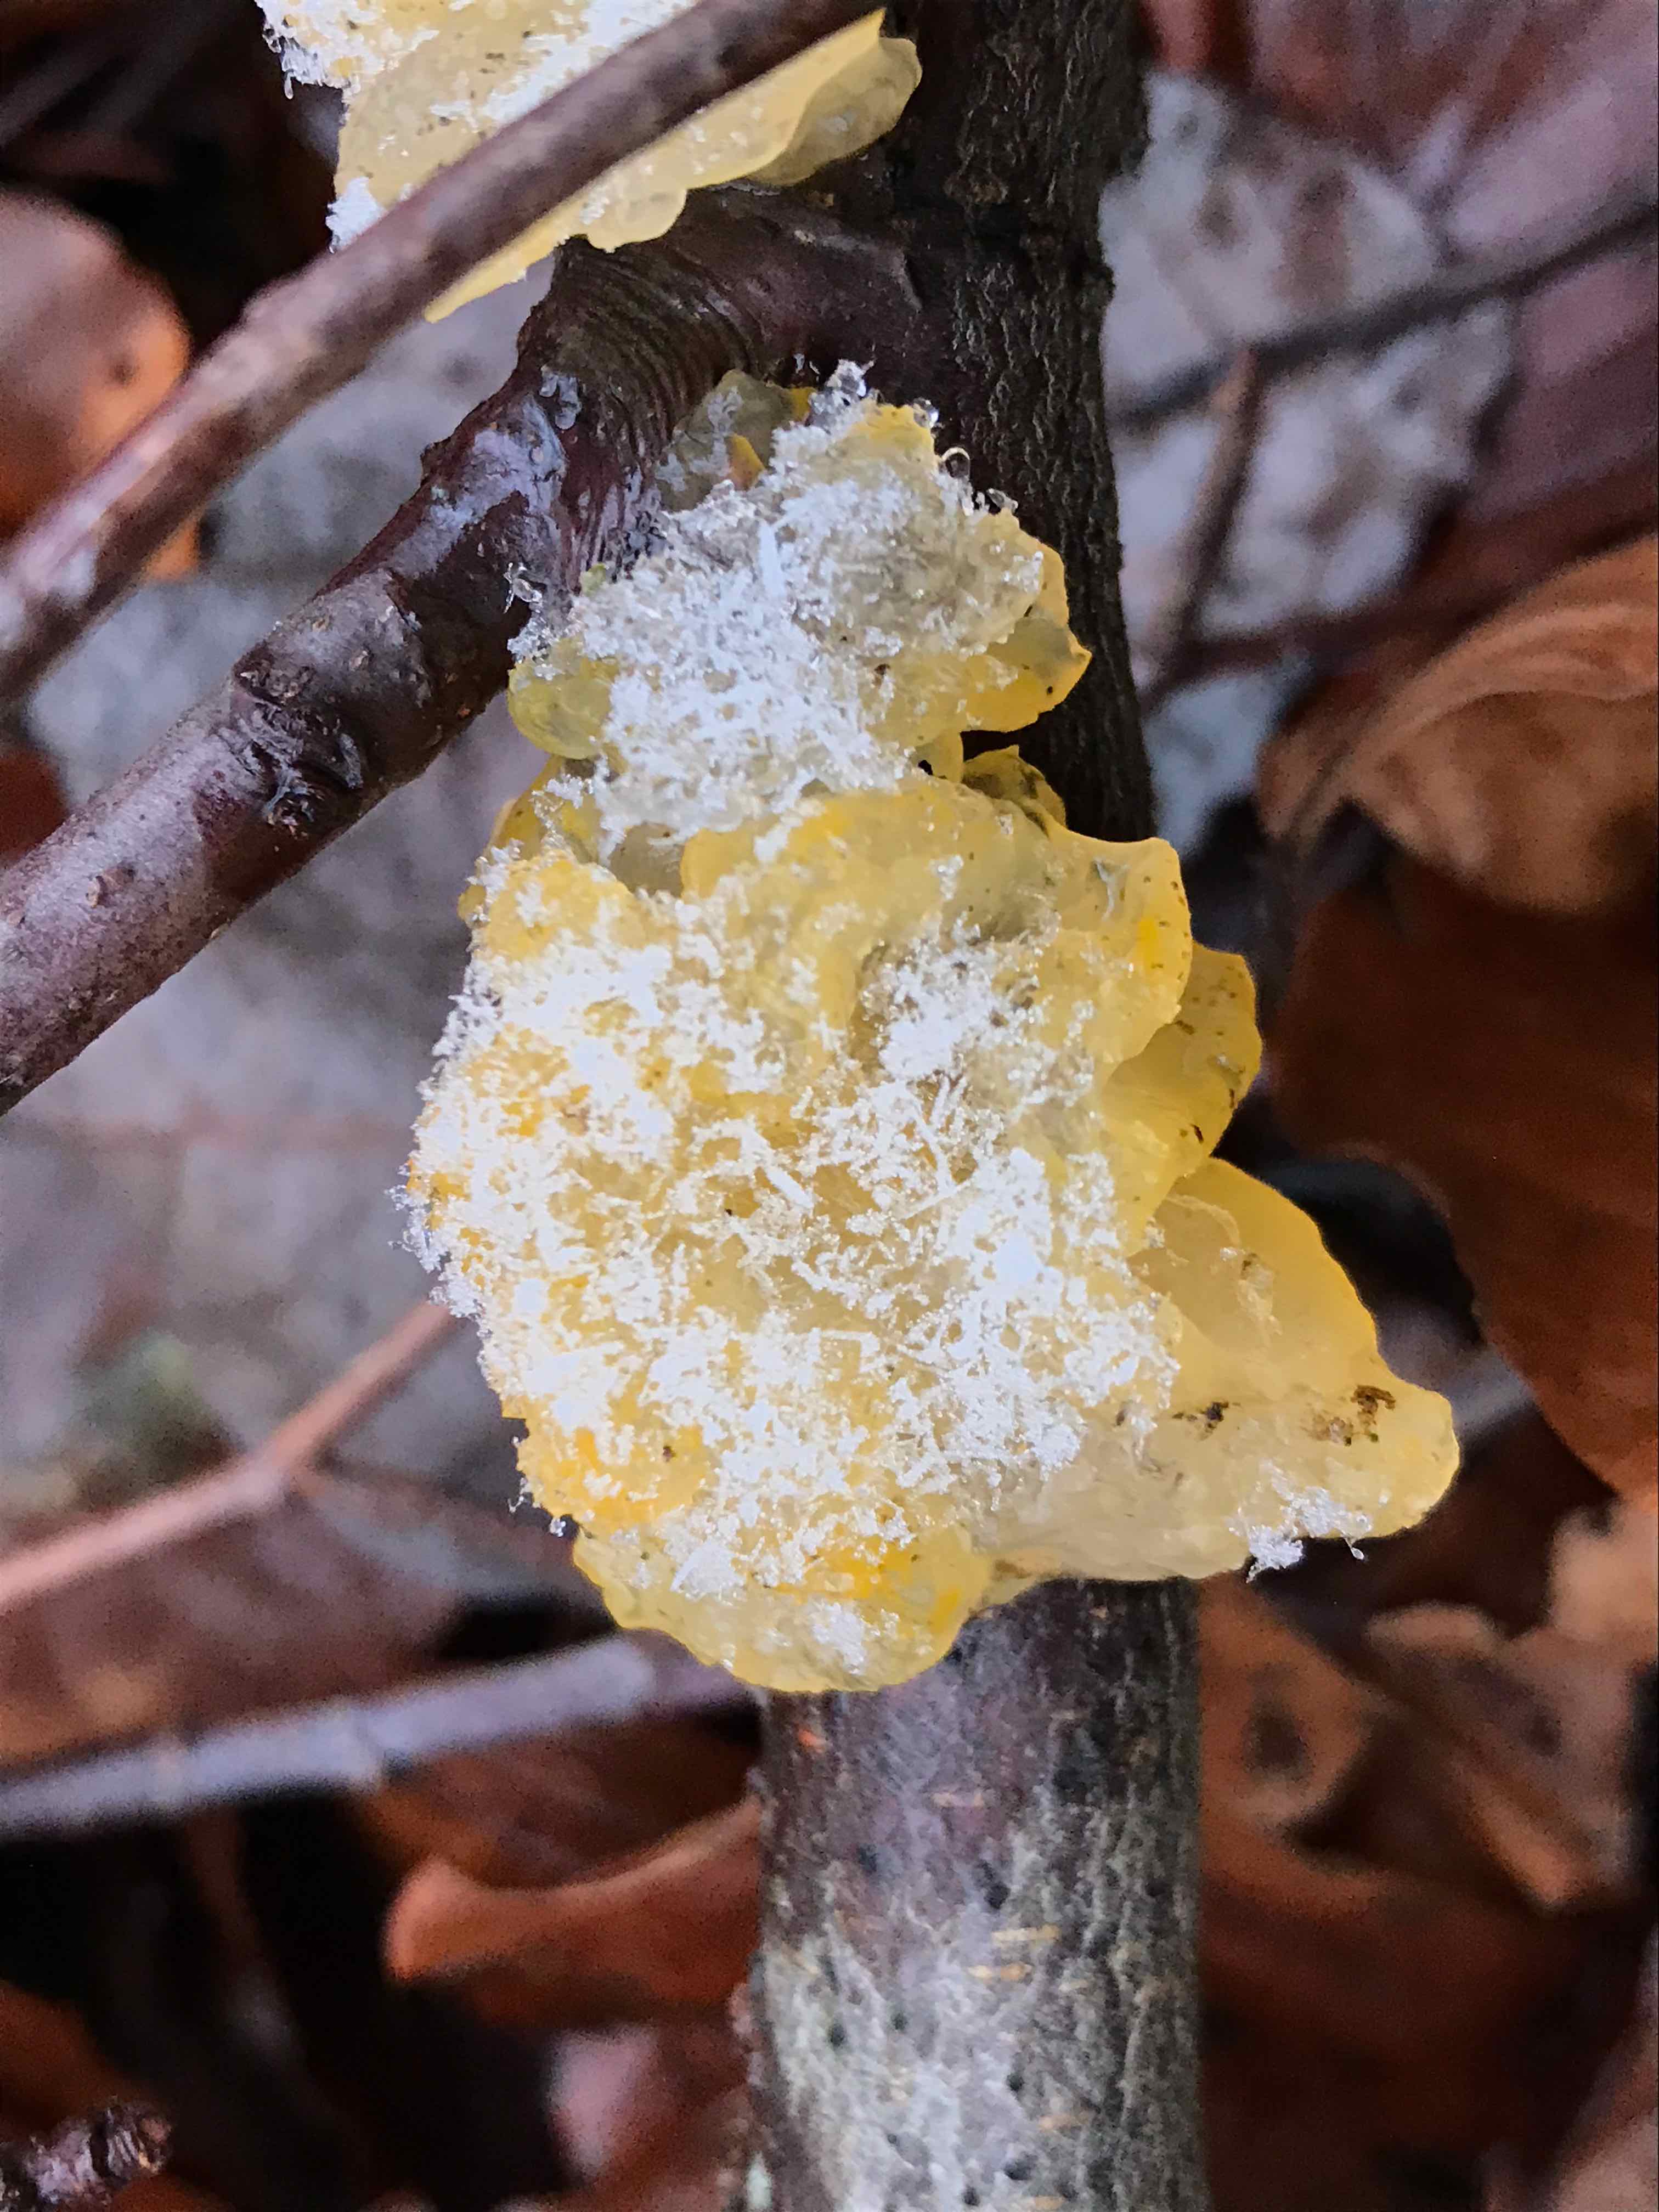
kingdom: Fungi
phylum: Basidiomycota
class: Tremellomycetes
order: Tremellales
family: Tremellaceae
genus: Tremella
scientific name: Tremella mesenterica
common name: gul bævresvamp
